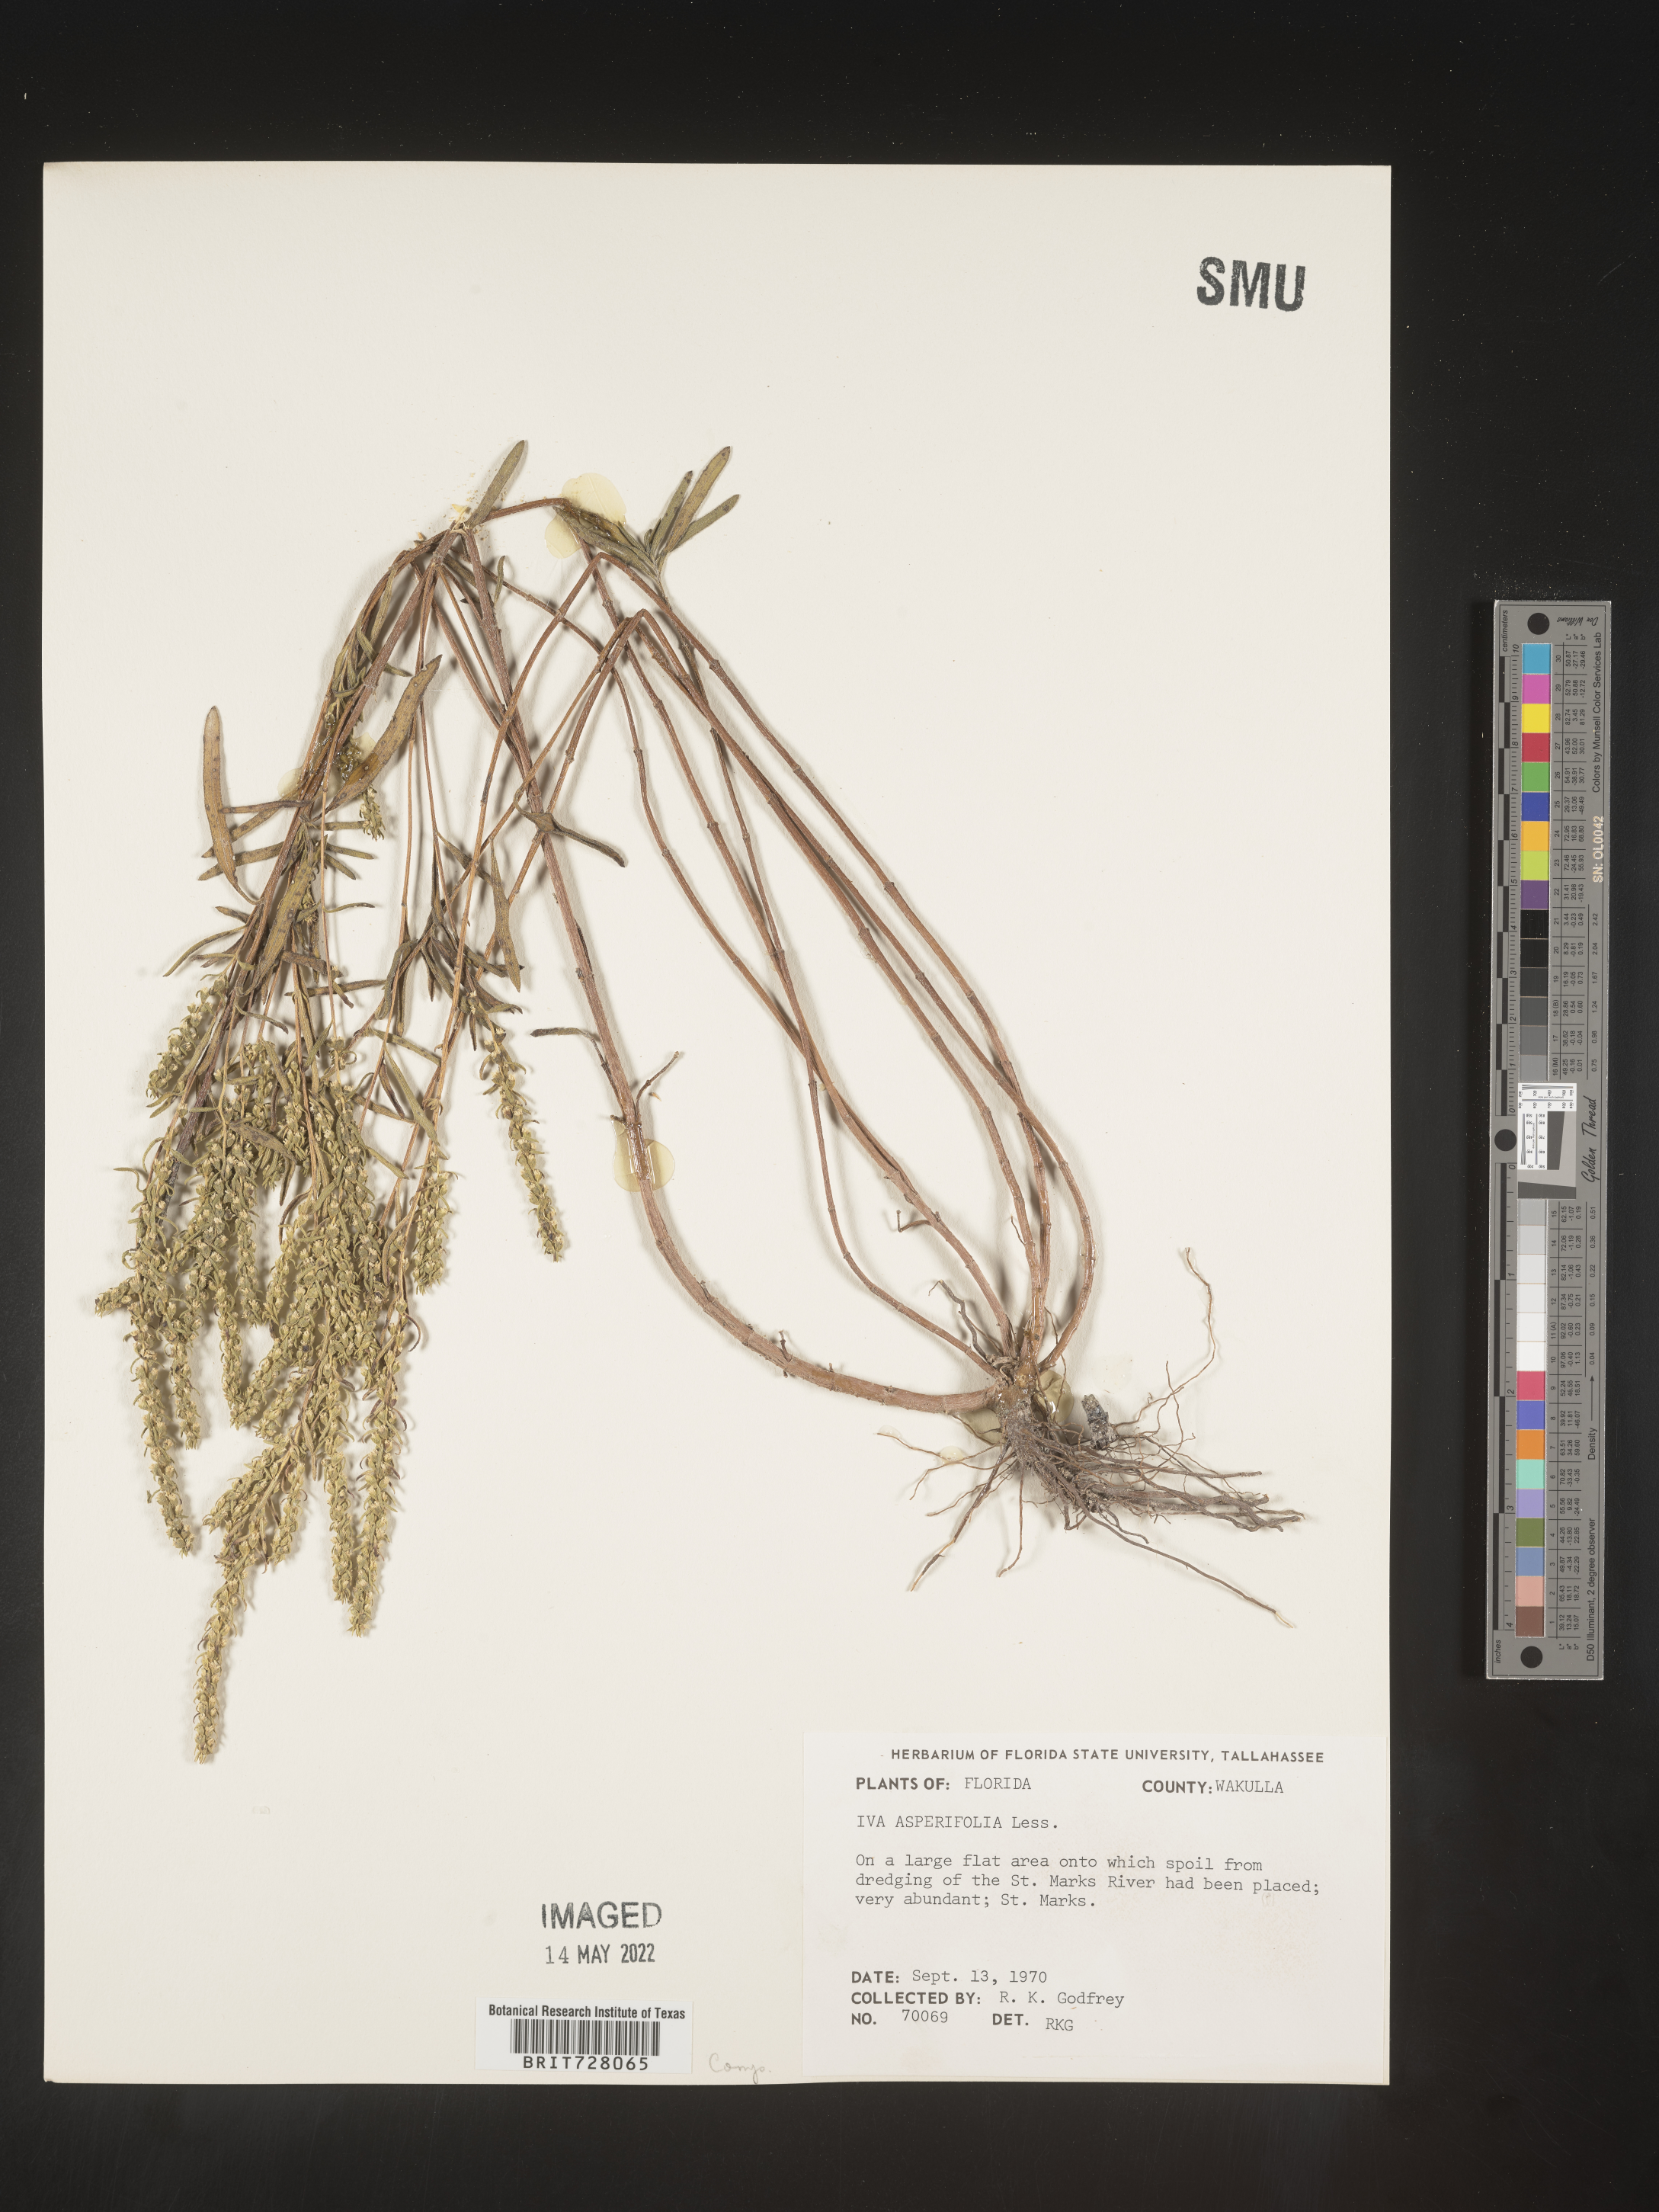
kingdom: Plantae
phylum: Tracheophyta
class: Magnoliopsida
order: Asterales
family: Asteraceae
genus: Iva
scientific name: Iva
